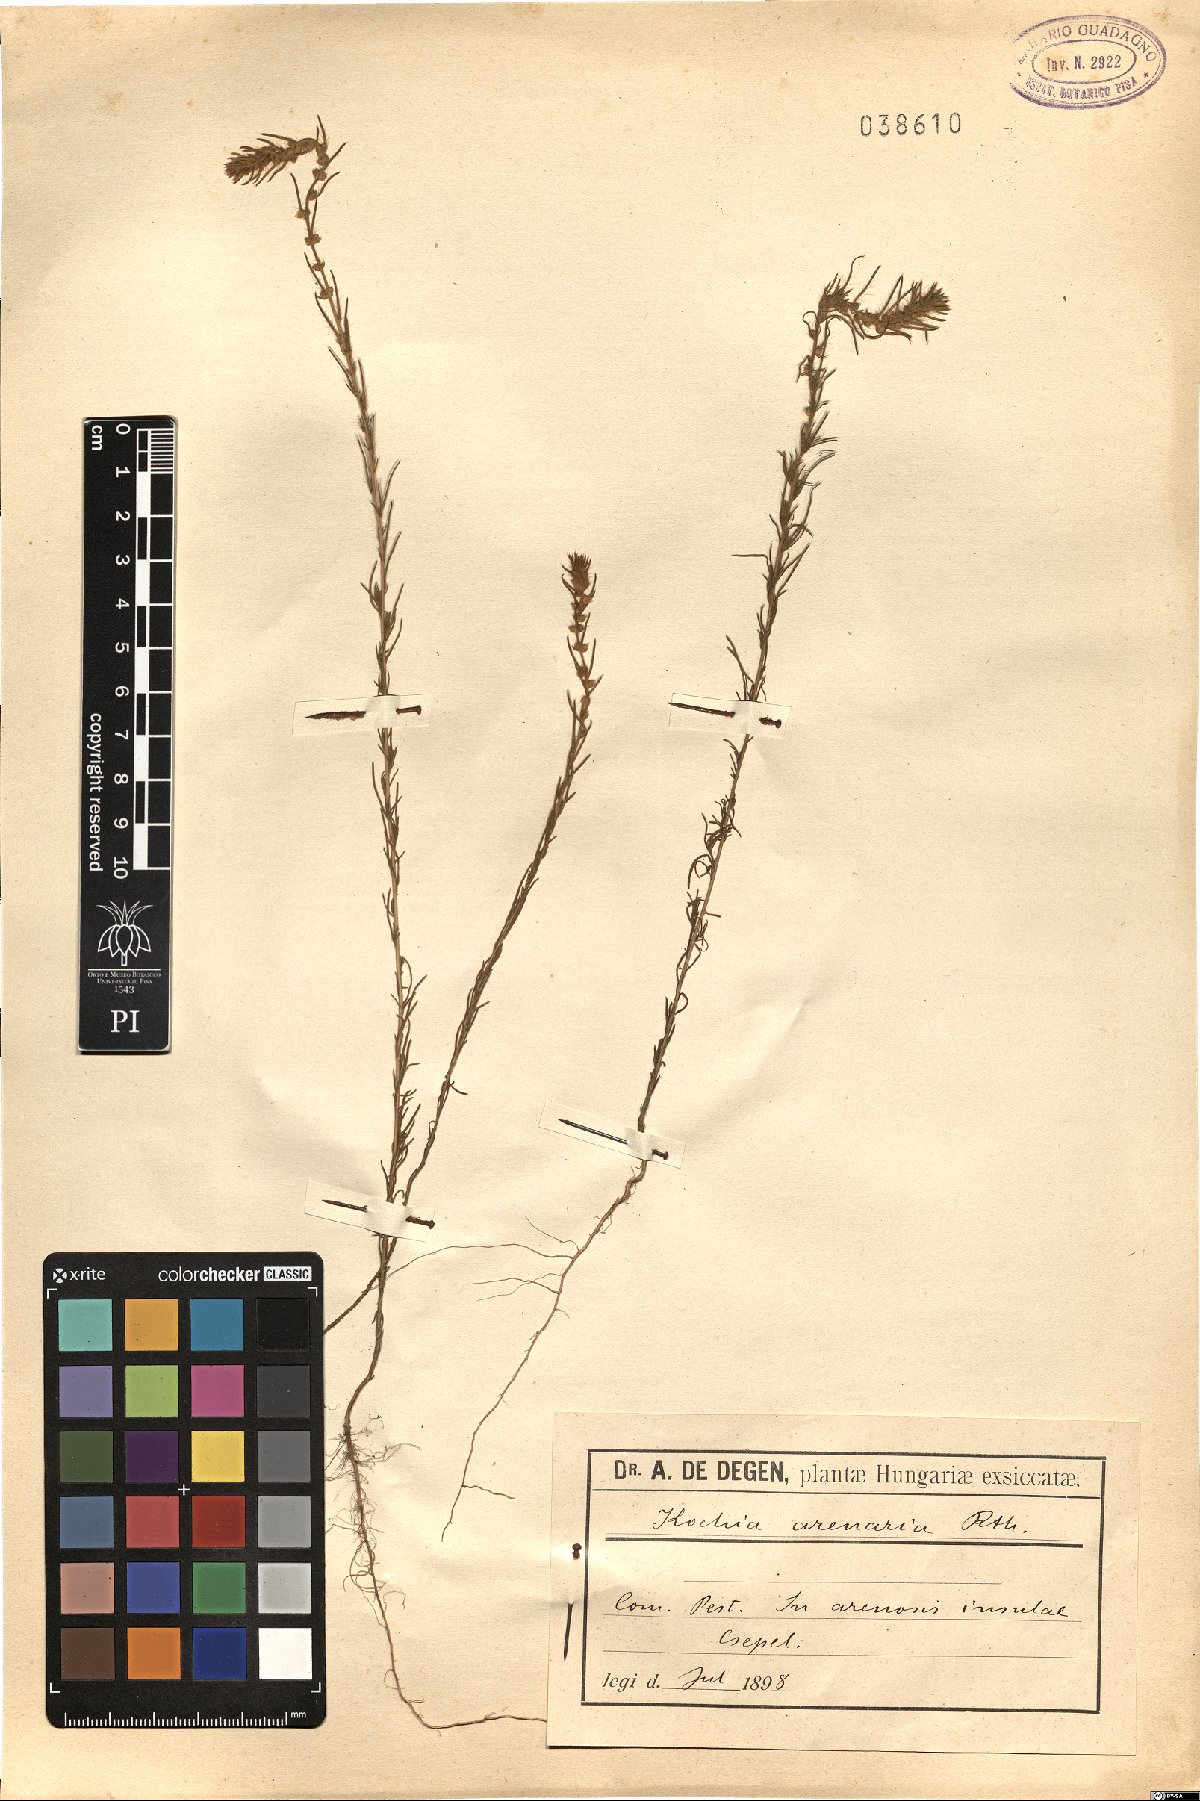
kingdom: Plantae
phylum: Tracheophyta
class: Magnoliopsida
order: Caryophyllales
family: Amaranthaceae
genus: Bassia
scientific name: Bassia Kochia arenaria
